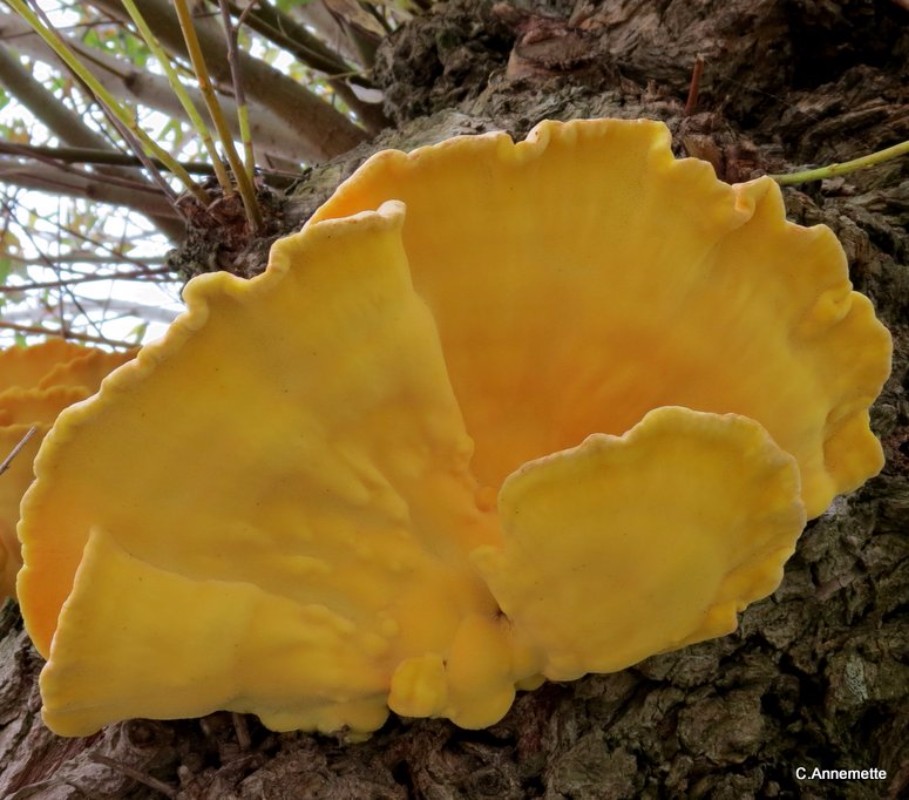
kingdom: Fungi
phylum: Basidiomycota
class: Agaricomycetes
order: Polyporales
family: Laetiporaceae
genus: Laetiporus
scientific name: Laetiporus sulphureus
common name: svovlporesvamp
